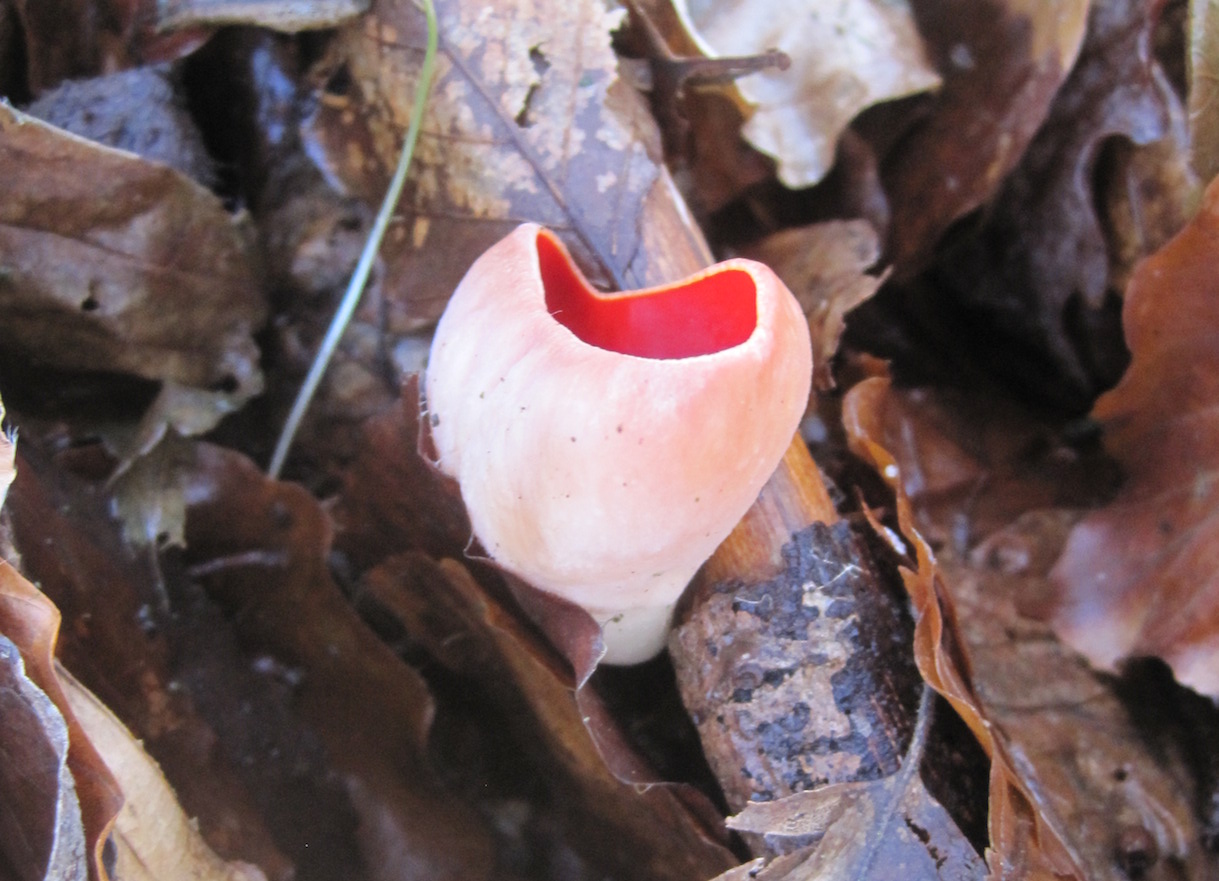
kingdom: Fungi
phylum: Ascomycota
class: Pezizomycetes
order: Pezizales
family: Sarcoscyphaceae
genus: Sarcoscypha
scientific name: Sarcoscypha austriaca
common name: krølhåret pragtbæger
